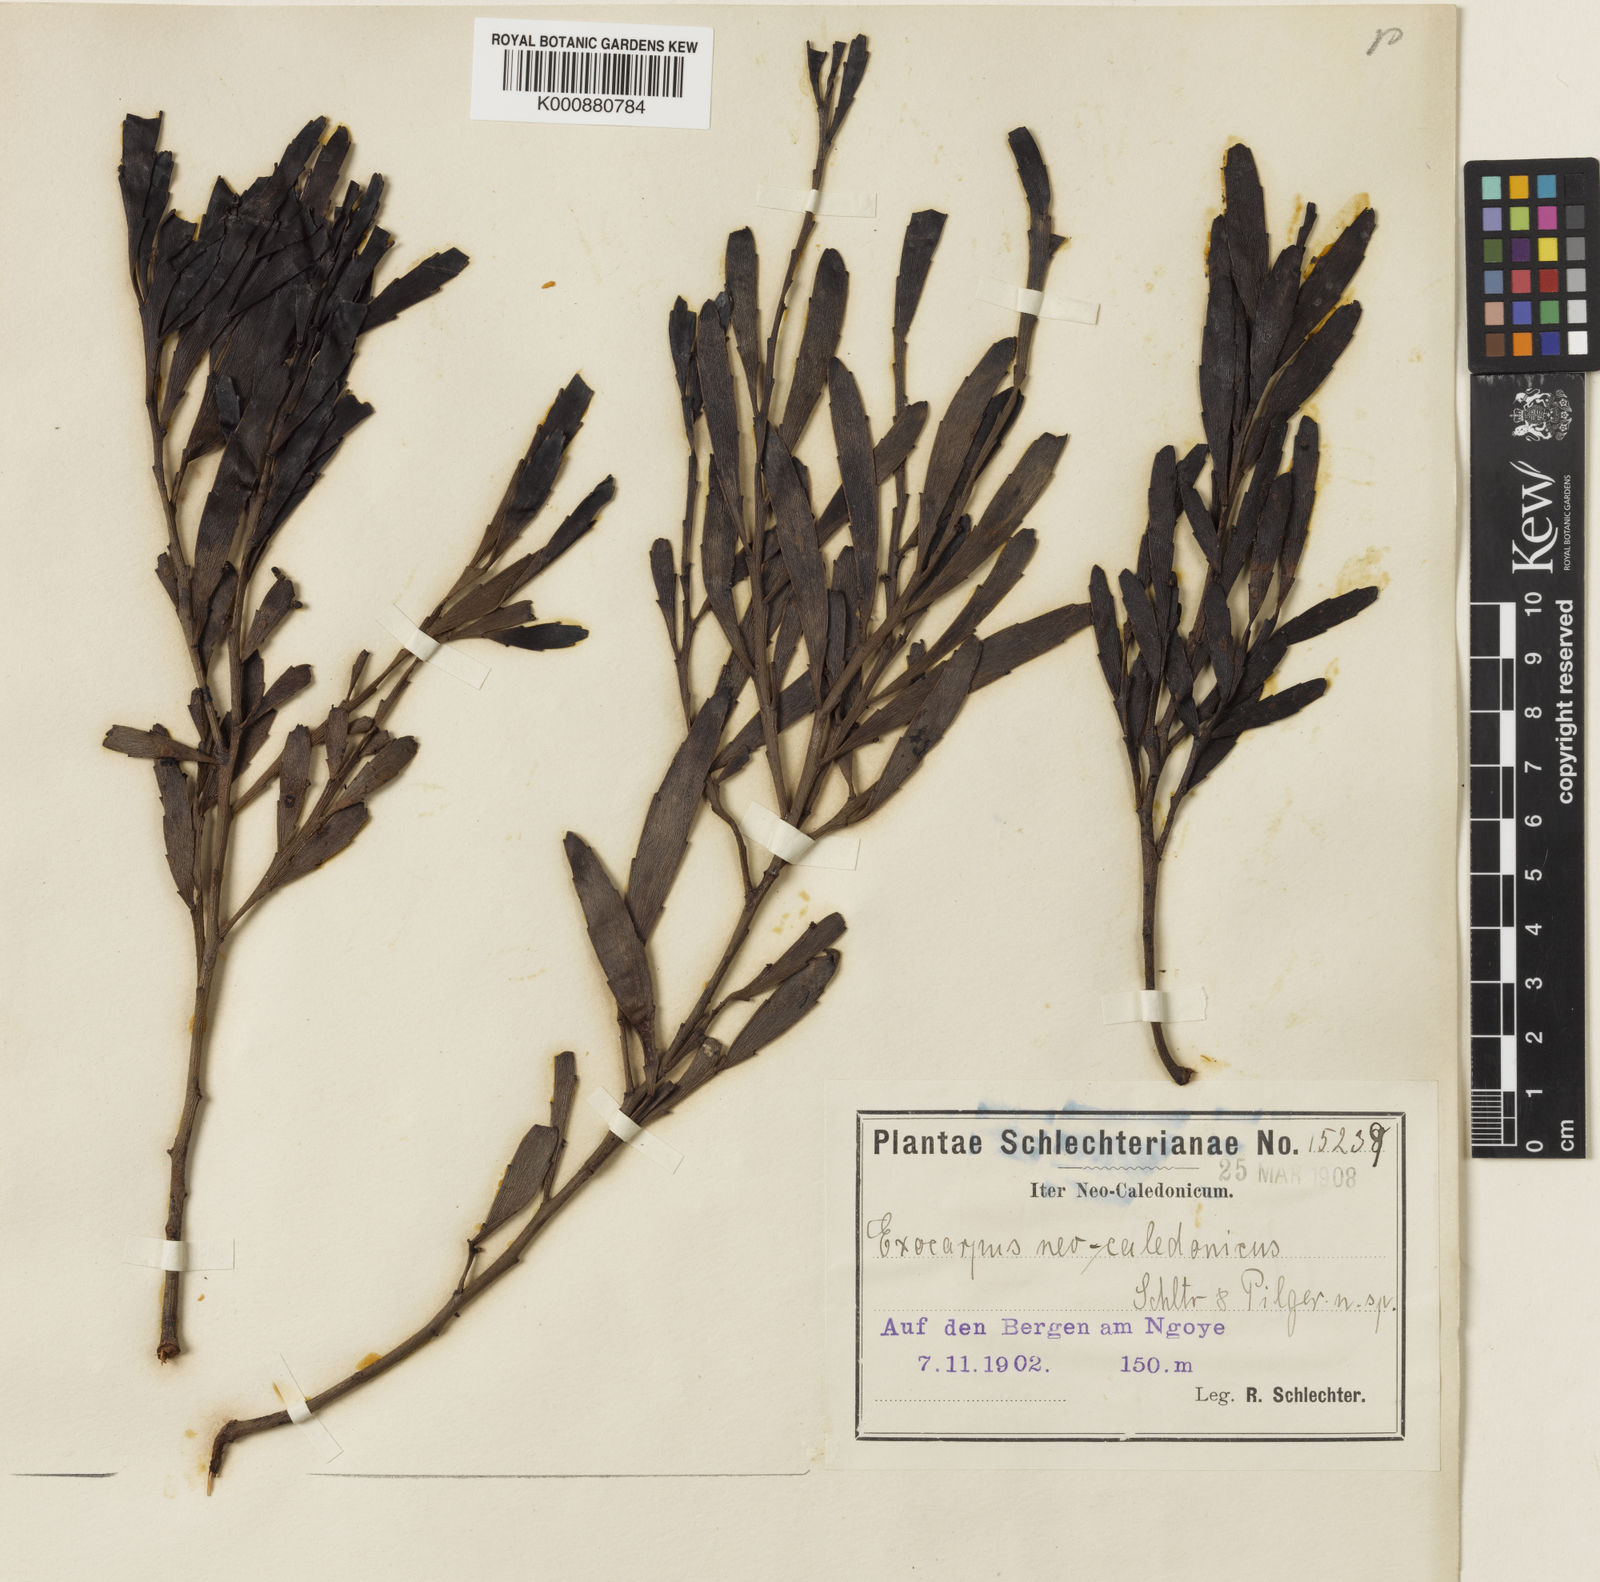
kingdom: Plantae
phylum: Tracheophyta
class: Magnoliopsida
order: Santalales
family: Santalaceae
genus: Exocarpos
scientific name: Exocarpos neocaledonicus
